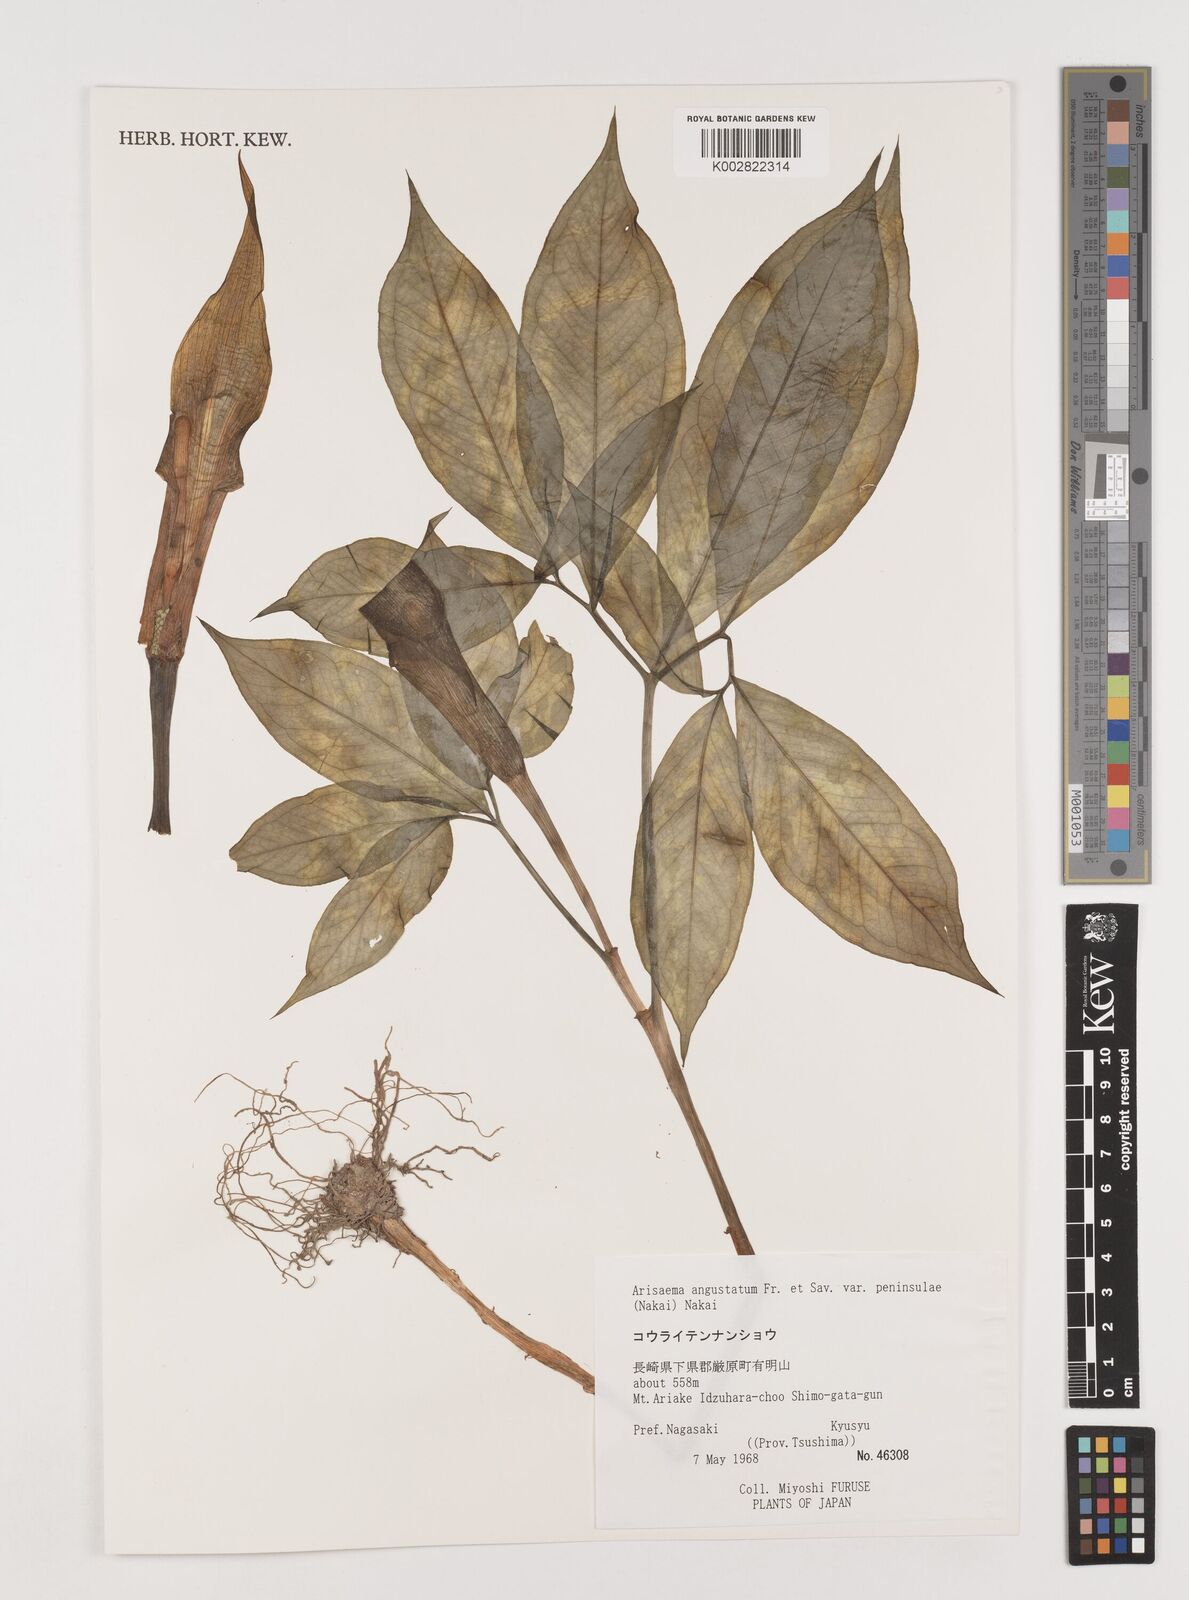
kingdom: Plantae
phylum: Tracheophyta
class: Liliopsida
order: Alismatales
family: Araceae
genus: Arisaema
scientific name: Arisaema angustatum
